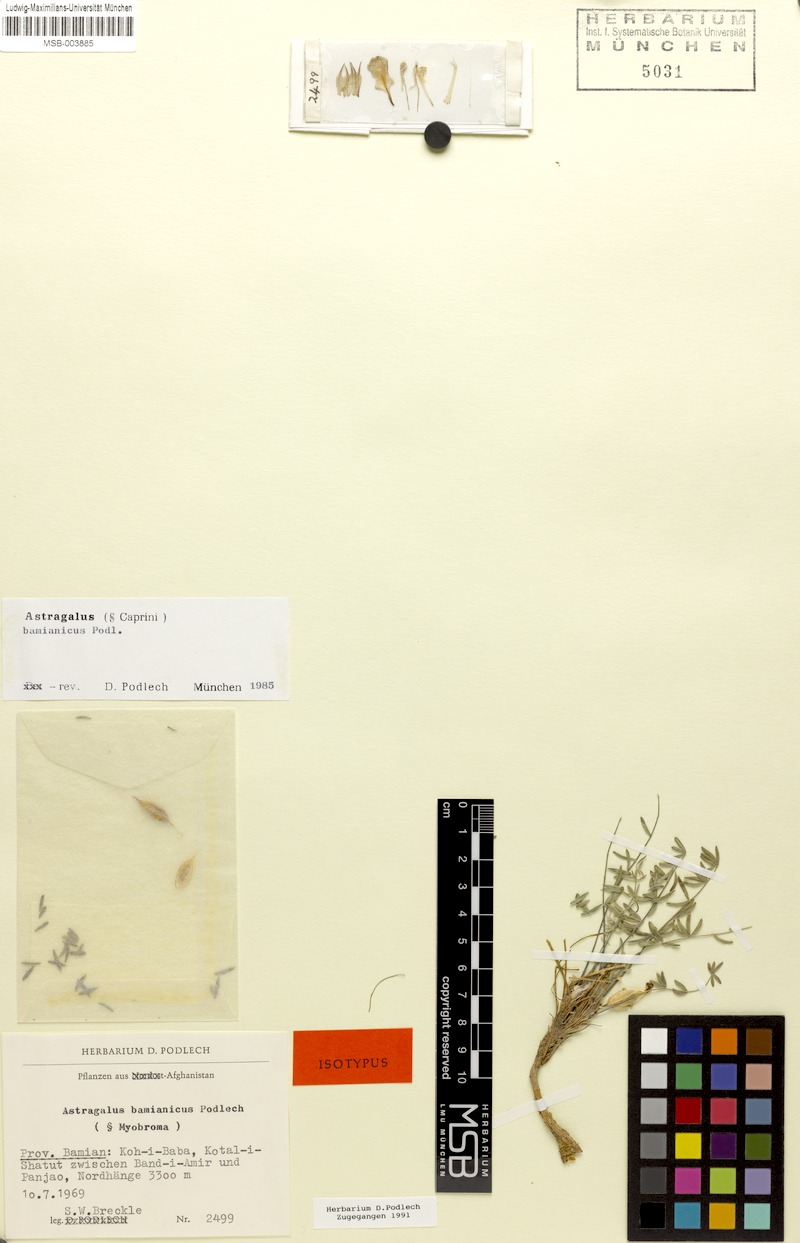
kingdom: Plantae
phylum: Tracheophyta
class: Magnoliopsida
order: Fabales
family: Fabaceae
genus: Astragalus
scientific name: Astragalus bamianicus
